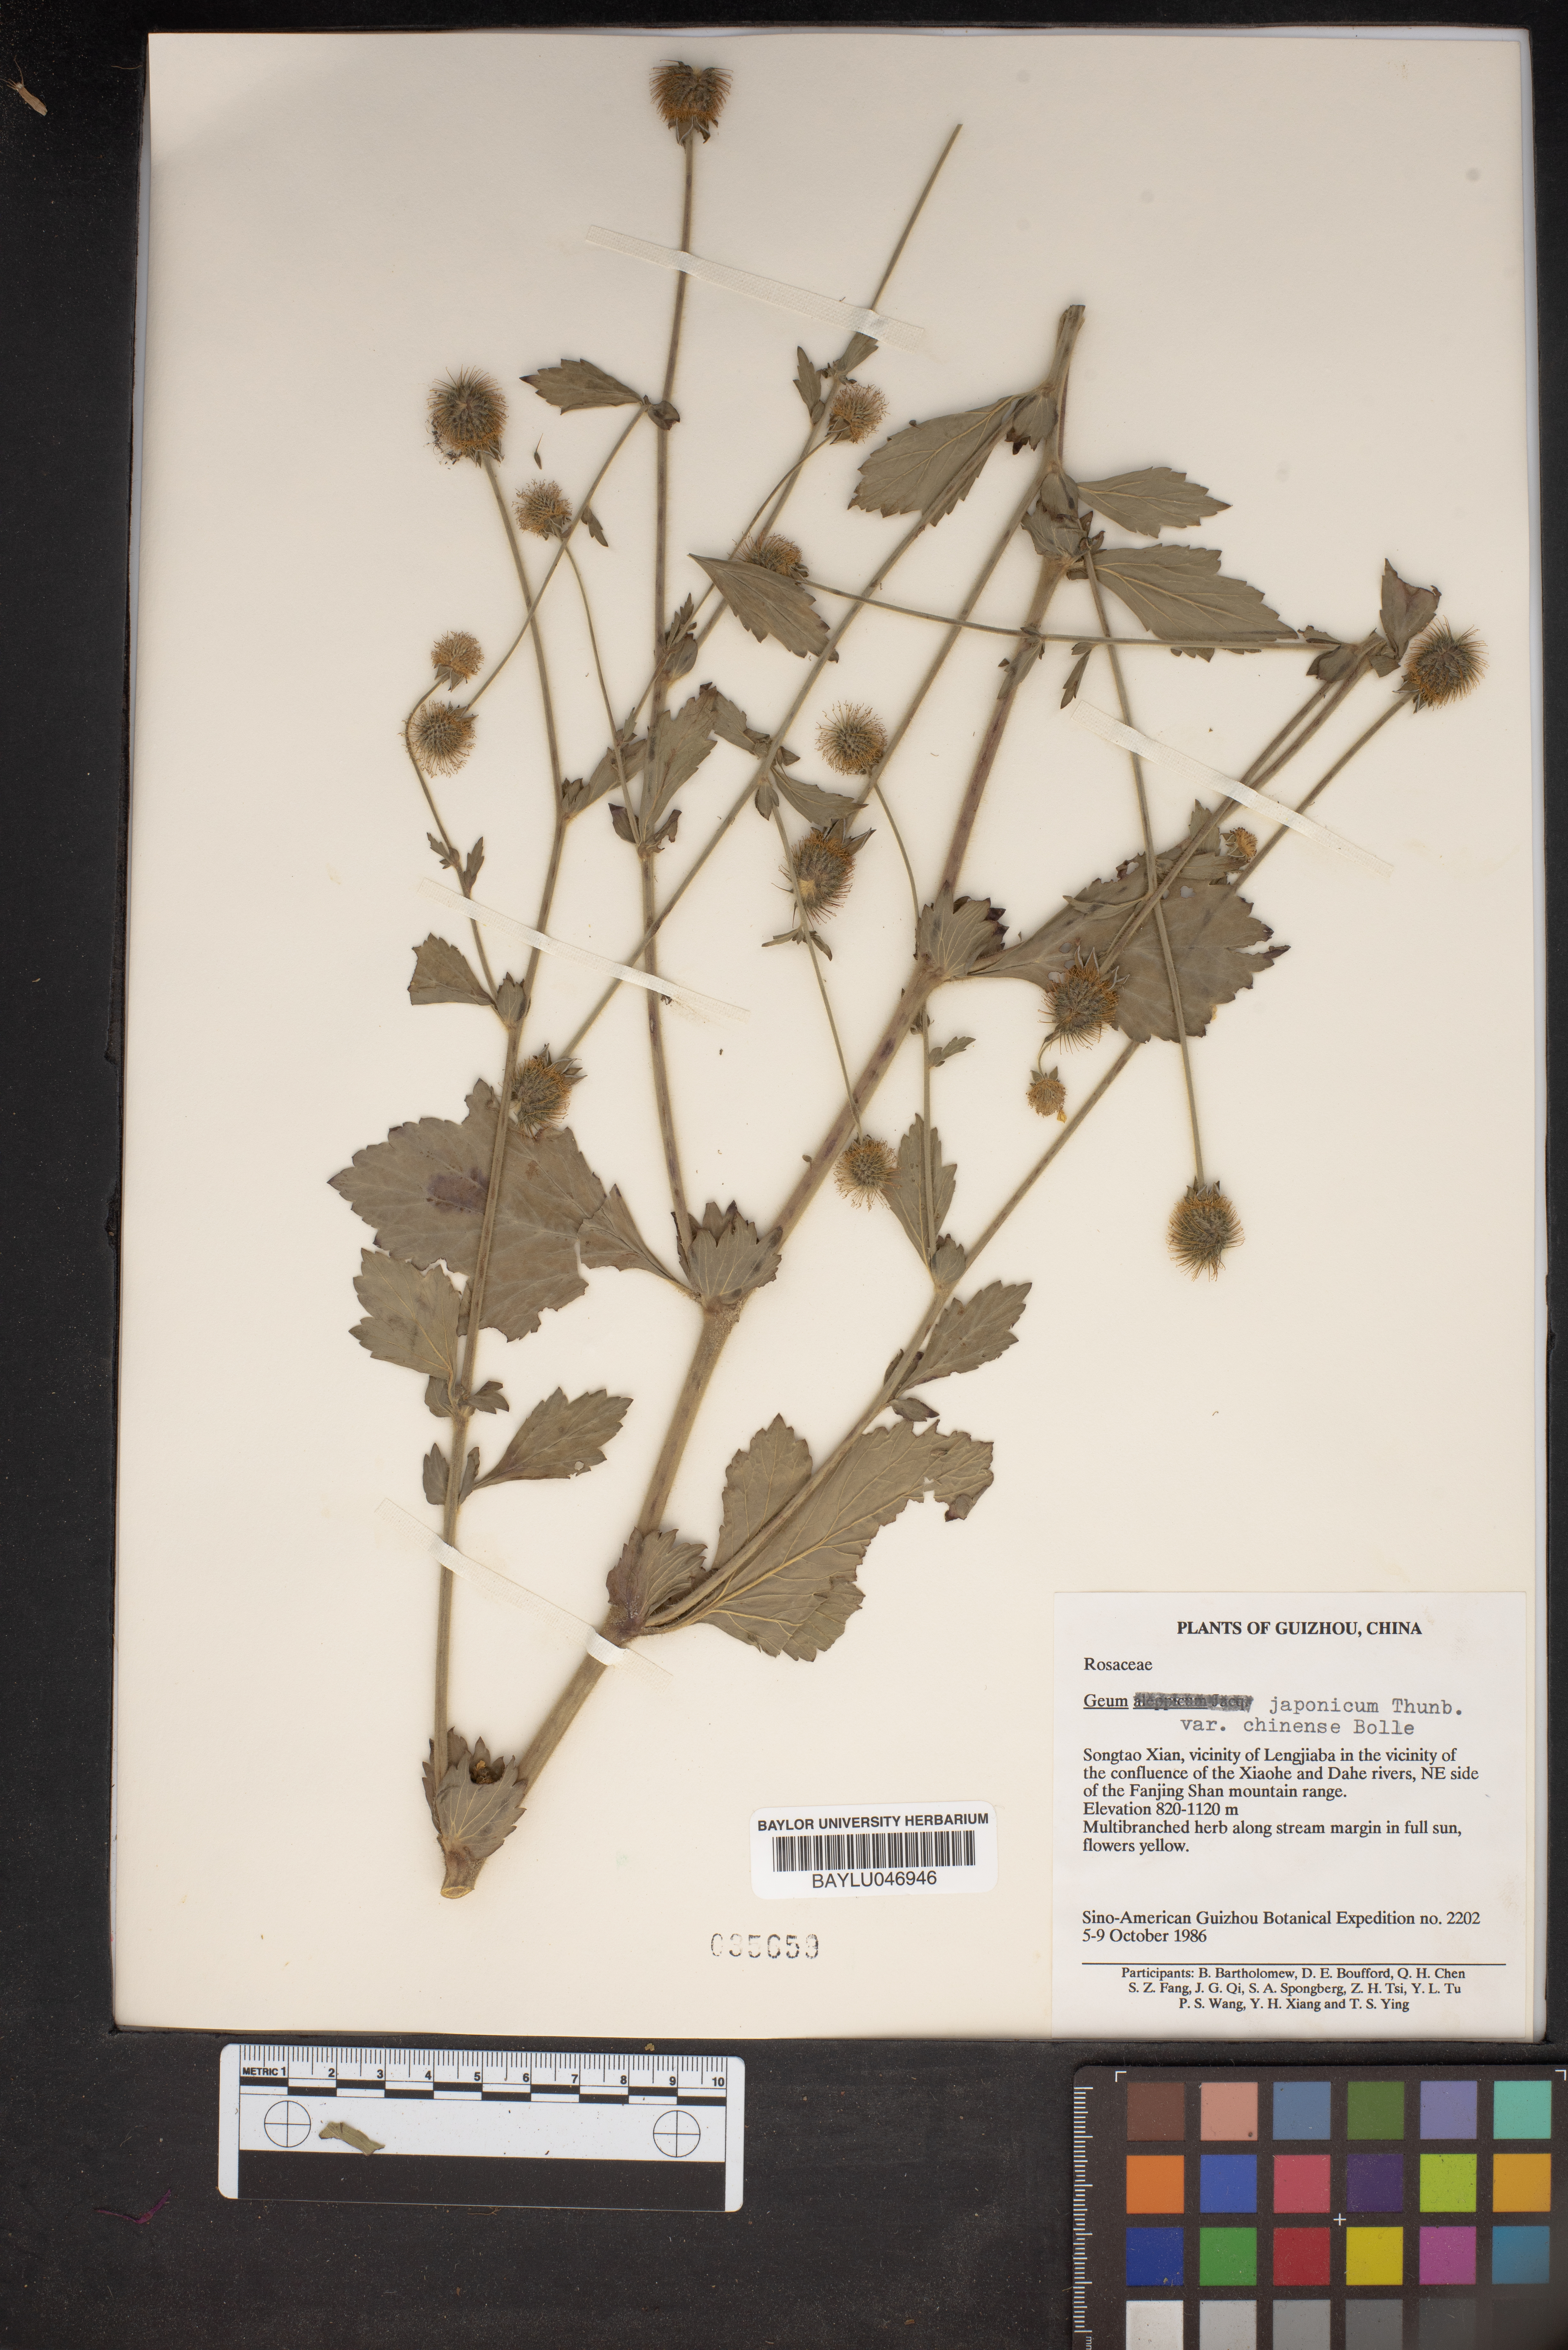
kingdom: Plantae
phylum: Tracheophyta
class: Magnoliopsida
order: Rosales
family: Rosaceae
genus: Geum
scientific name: Geum japonicum
